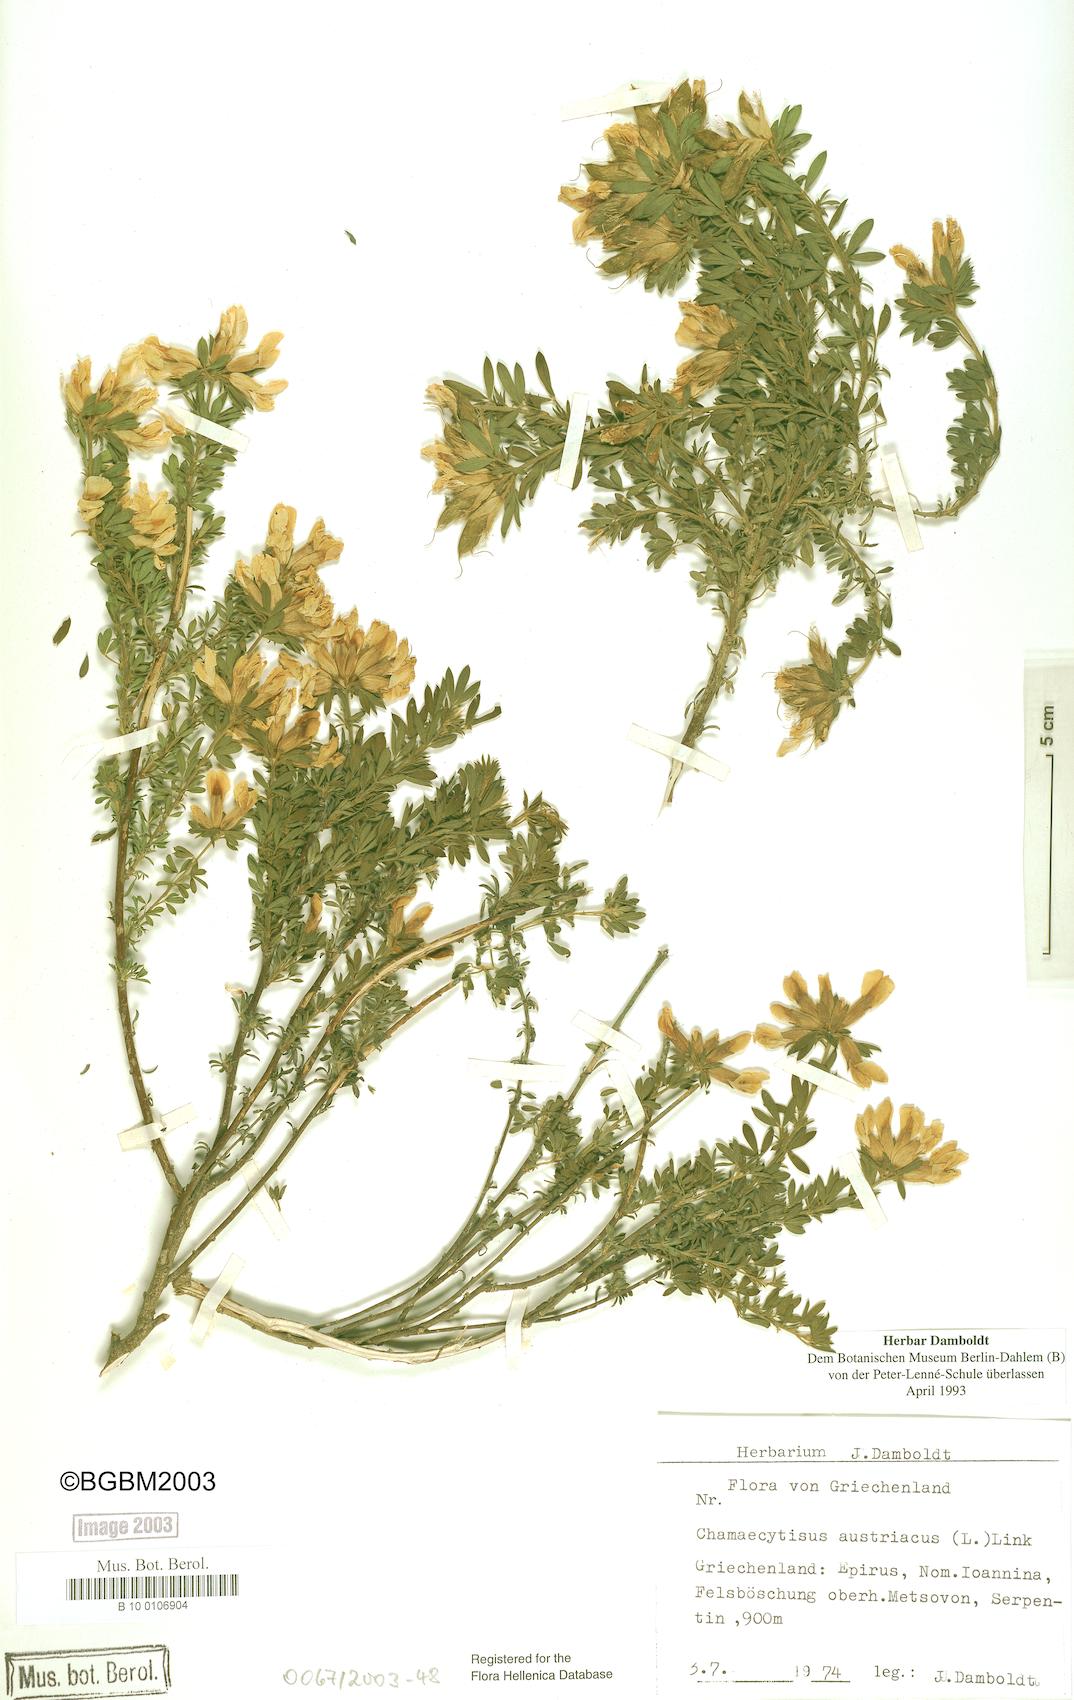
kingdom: Plantae
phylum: Tracheophyta
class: Magnoliopsida
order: Fabales
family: Fabaceae
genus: Chamaecytisus
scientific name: Chamaecytisus austriacus
